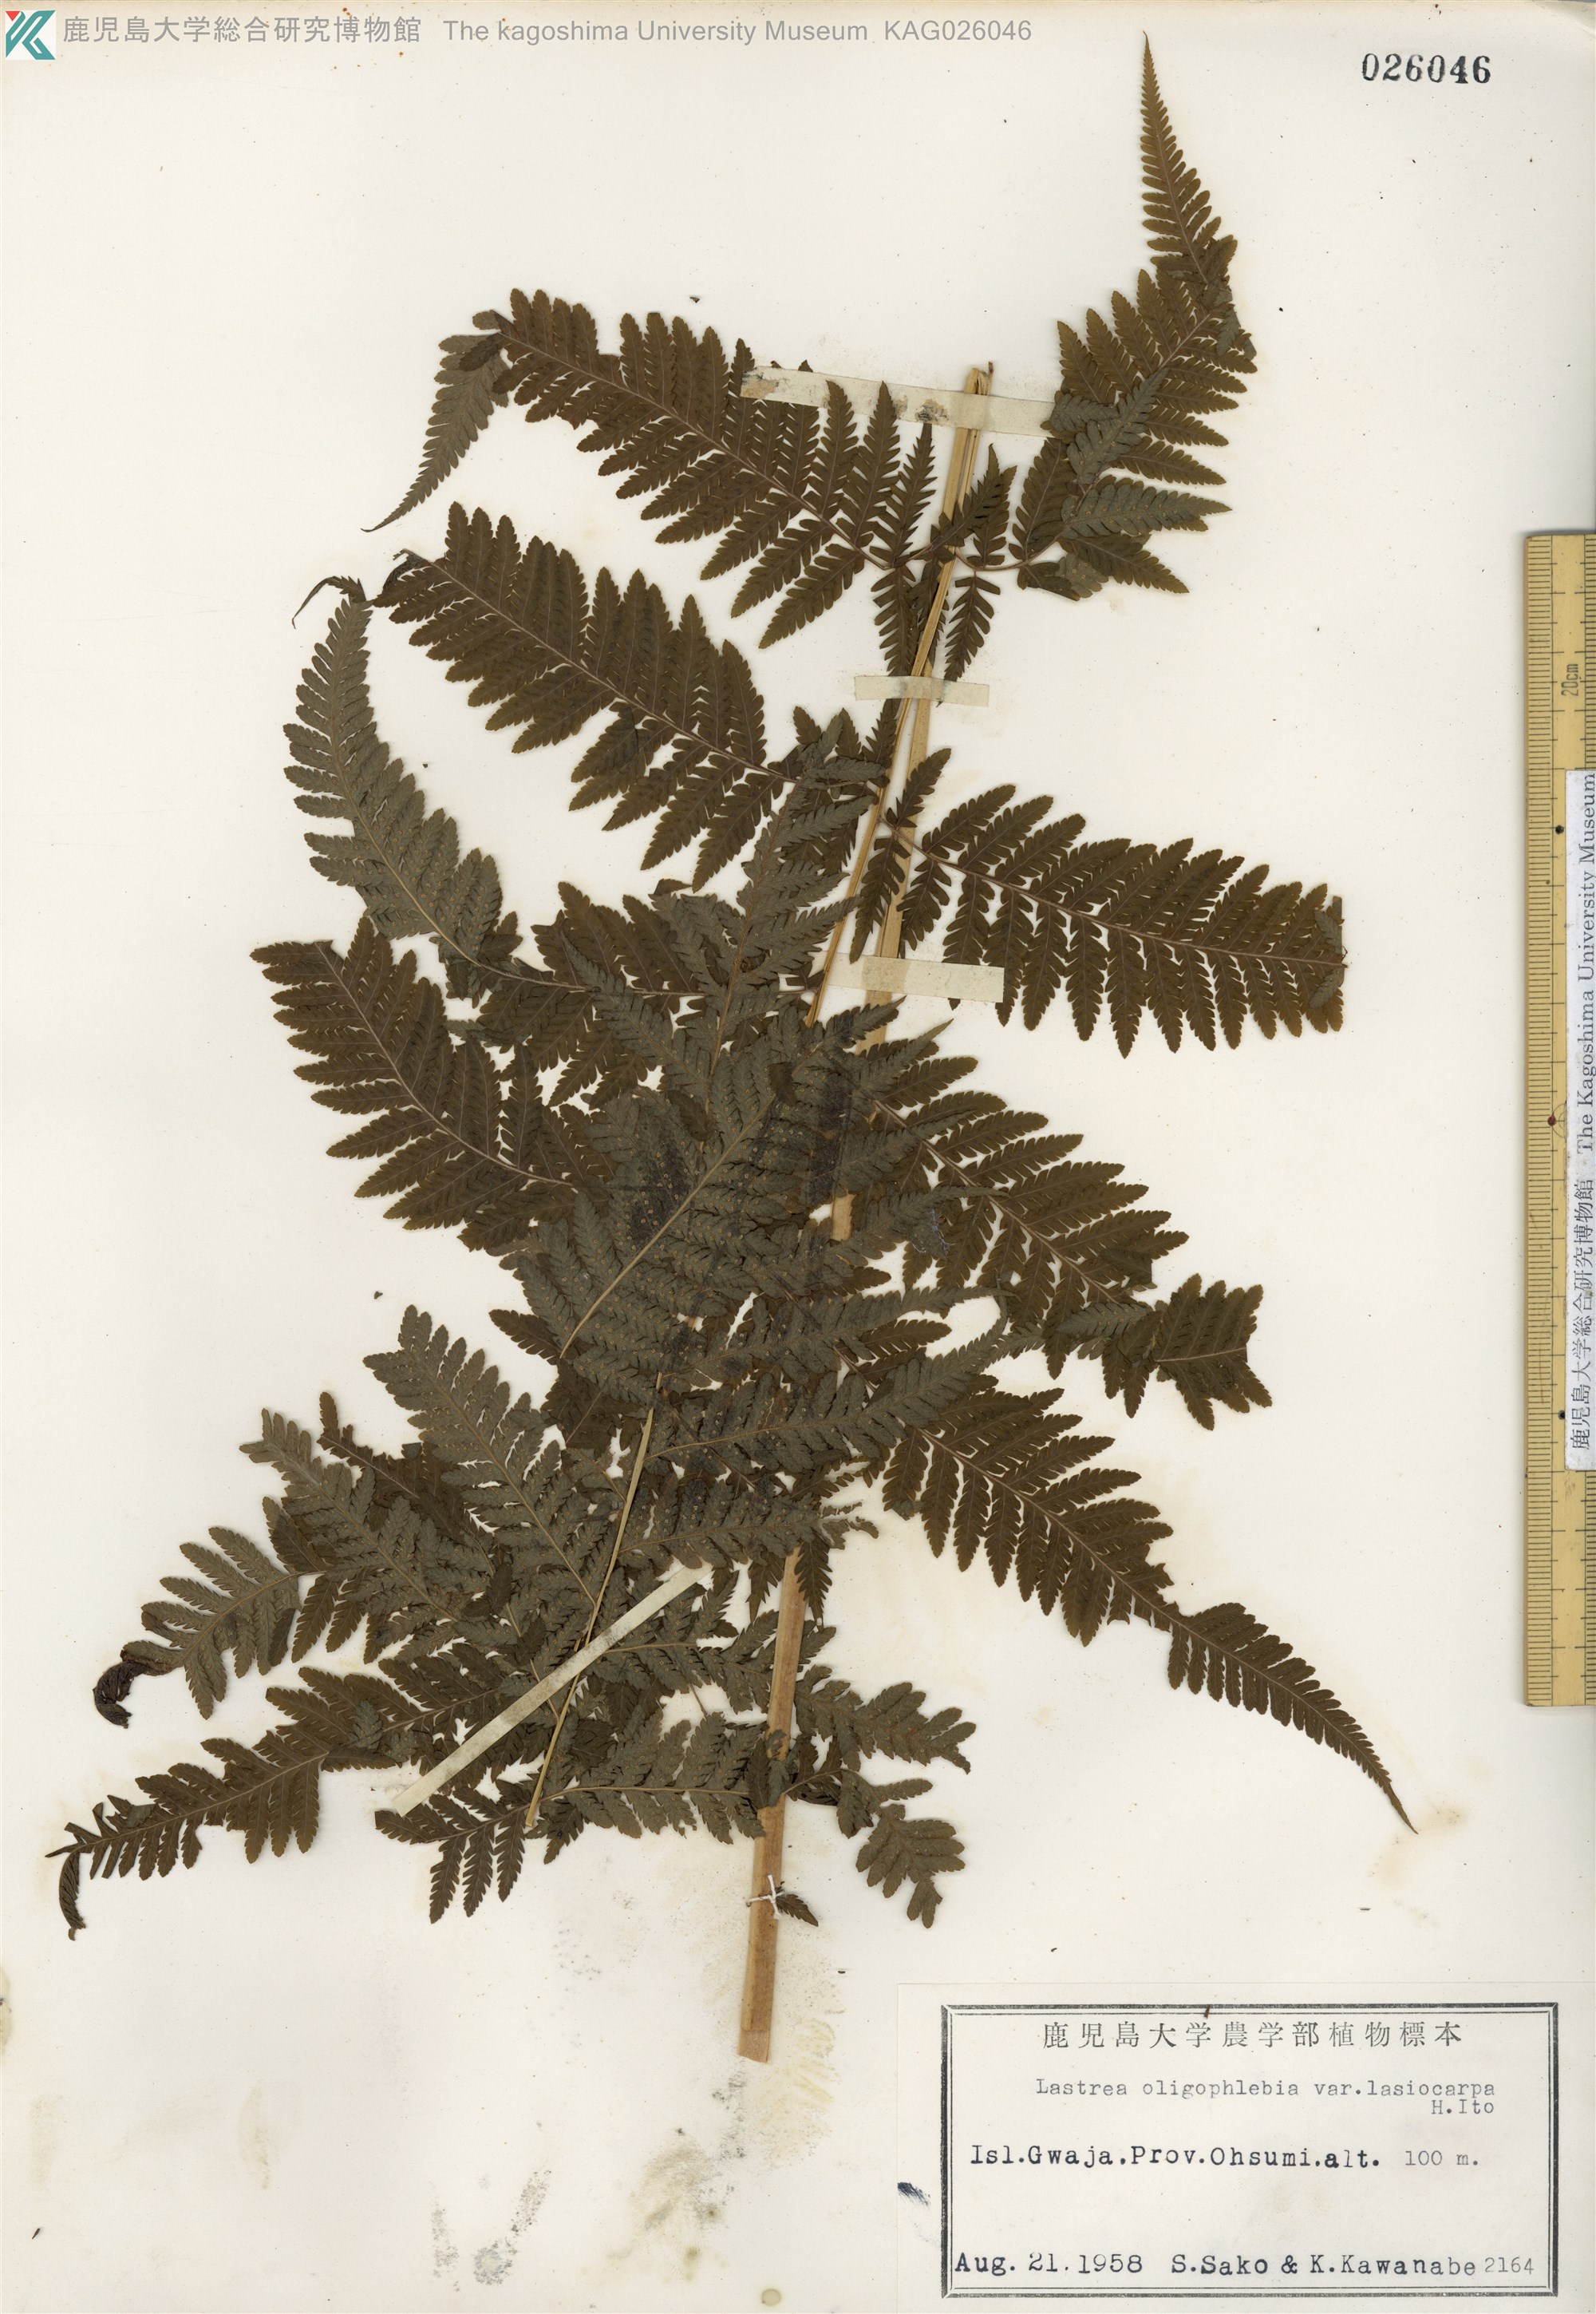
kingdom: Plantae
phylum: Tracheophyta
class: Polypodiopsida
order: Polypodiales
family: Thelypteridaceae
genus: Macrothelypteris
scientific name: Macrothelypteris oligophlebia
